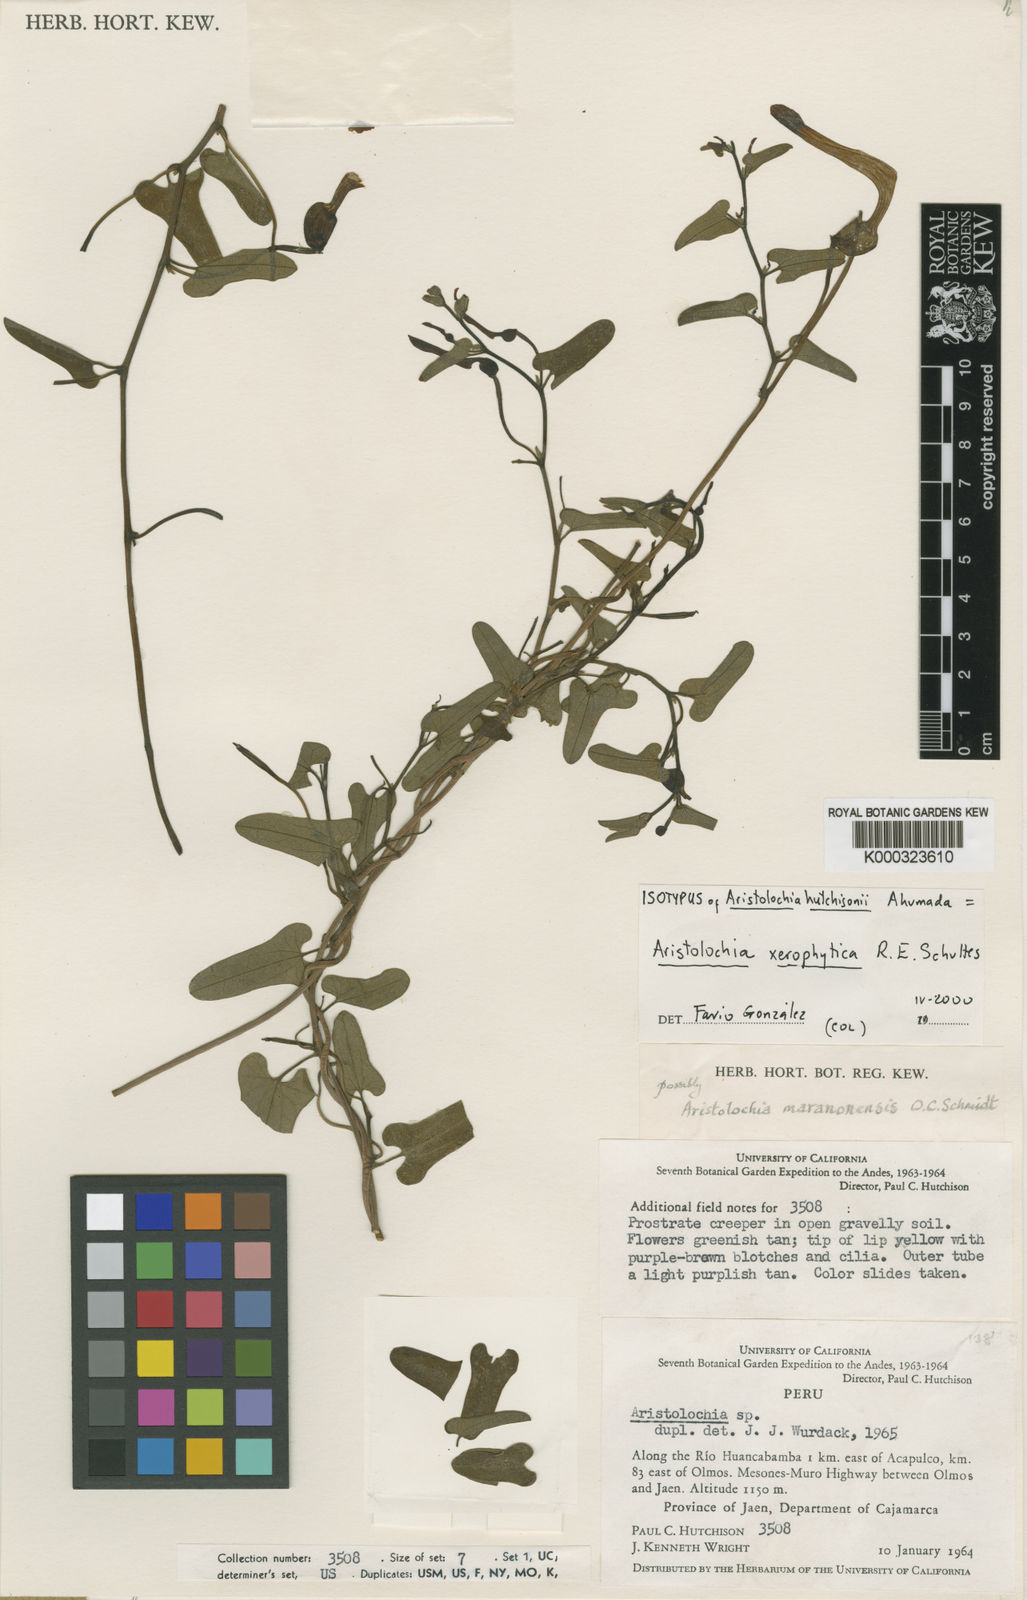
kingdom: Plantae
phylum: Tracheophyta
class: Magnoliopsida
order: Piperales
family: Aristolochiaceae
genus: Aristolochia
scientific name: Aristolochia maranonensis
